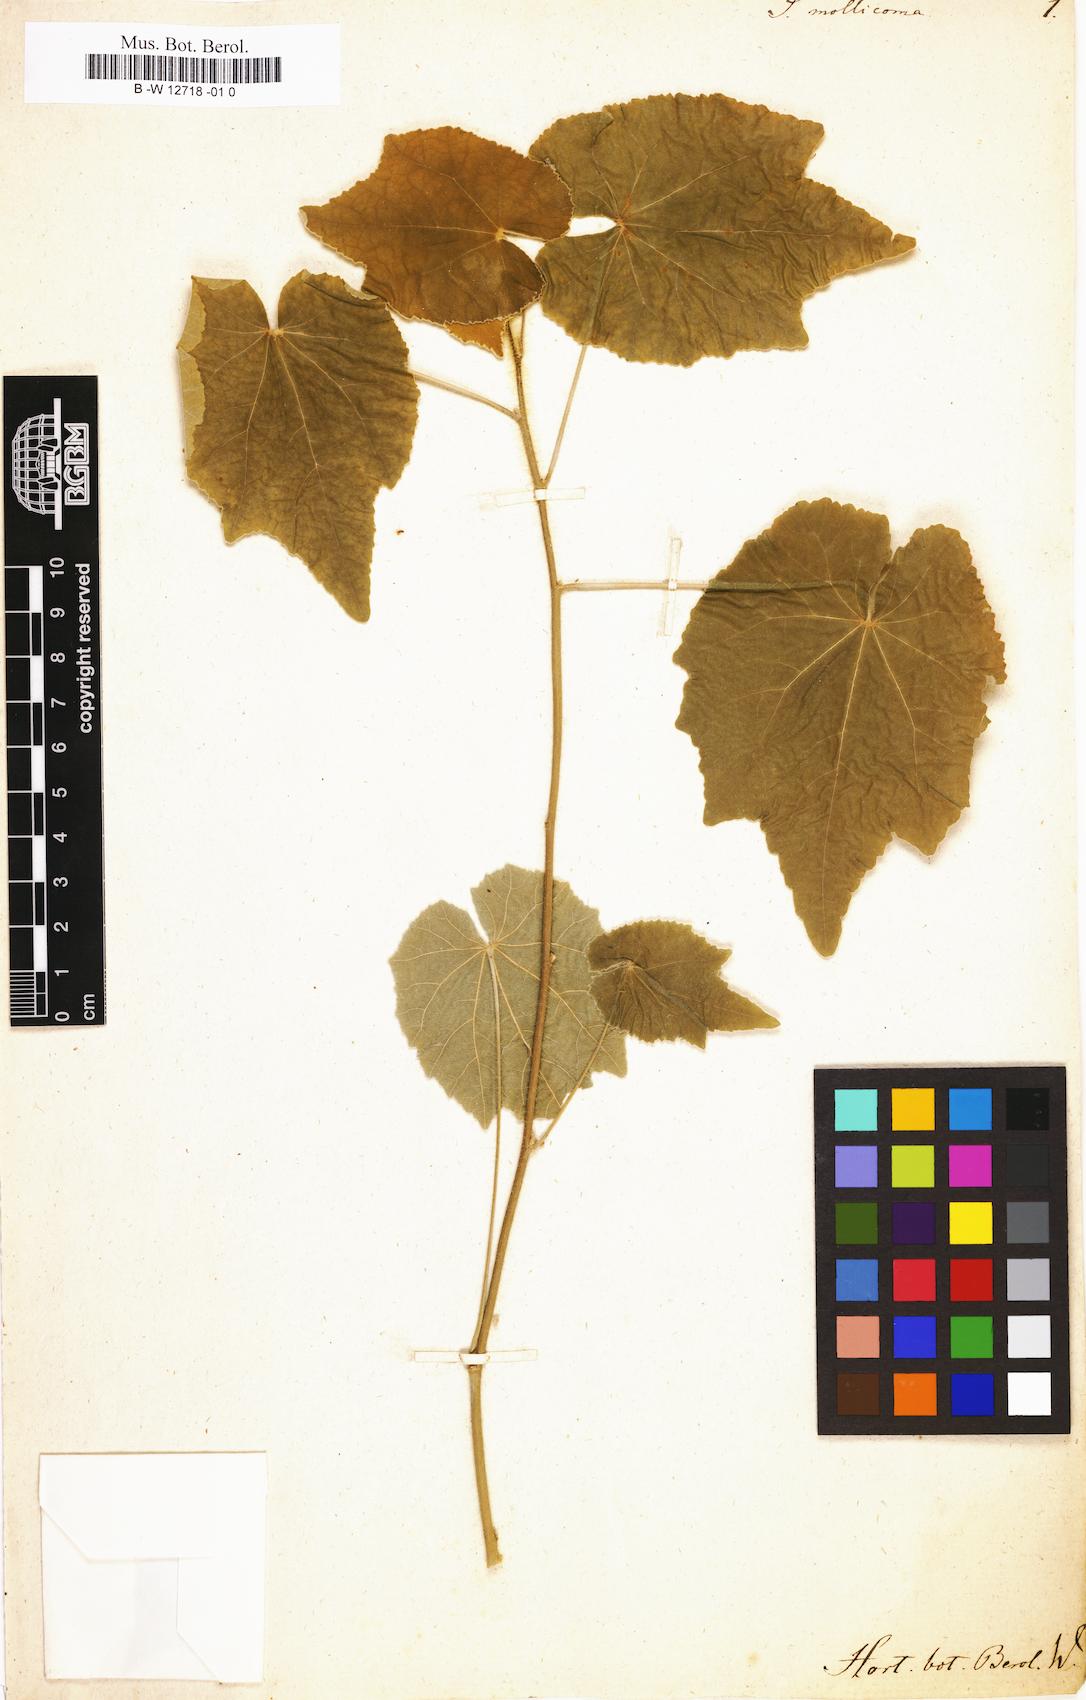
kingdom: Plantae
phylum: Tracheophyta
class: Magnoliopsida
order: Malvales
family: Malvaceae
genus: Abutilon
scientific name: Abutilon mollicomum
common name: Sonoran indian-mallow
